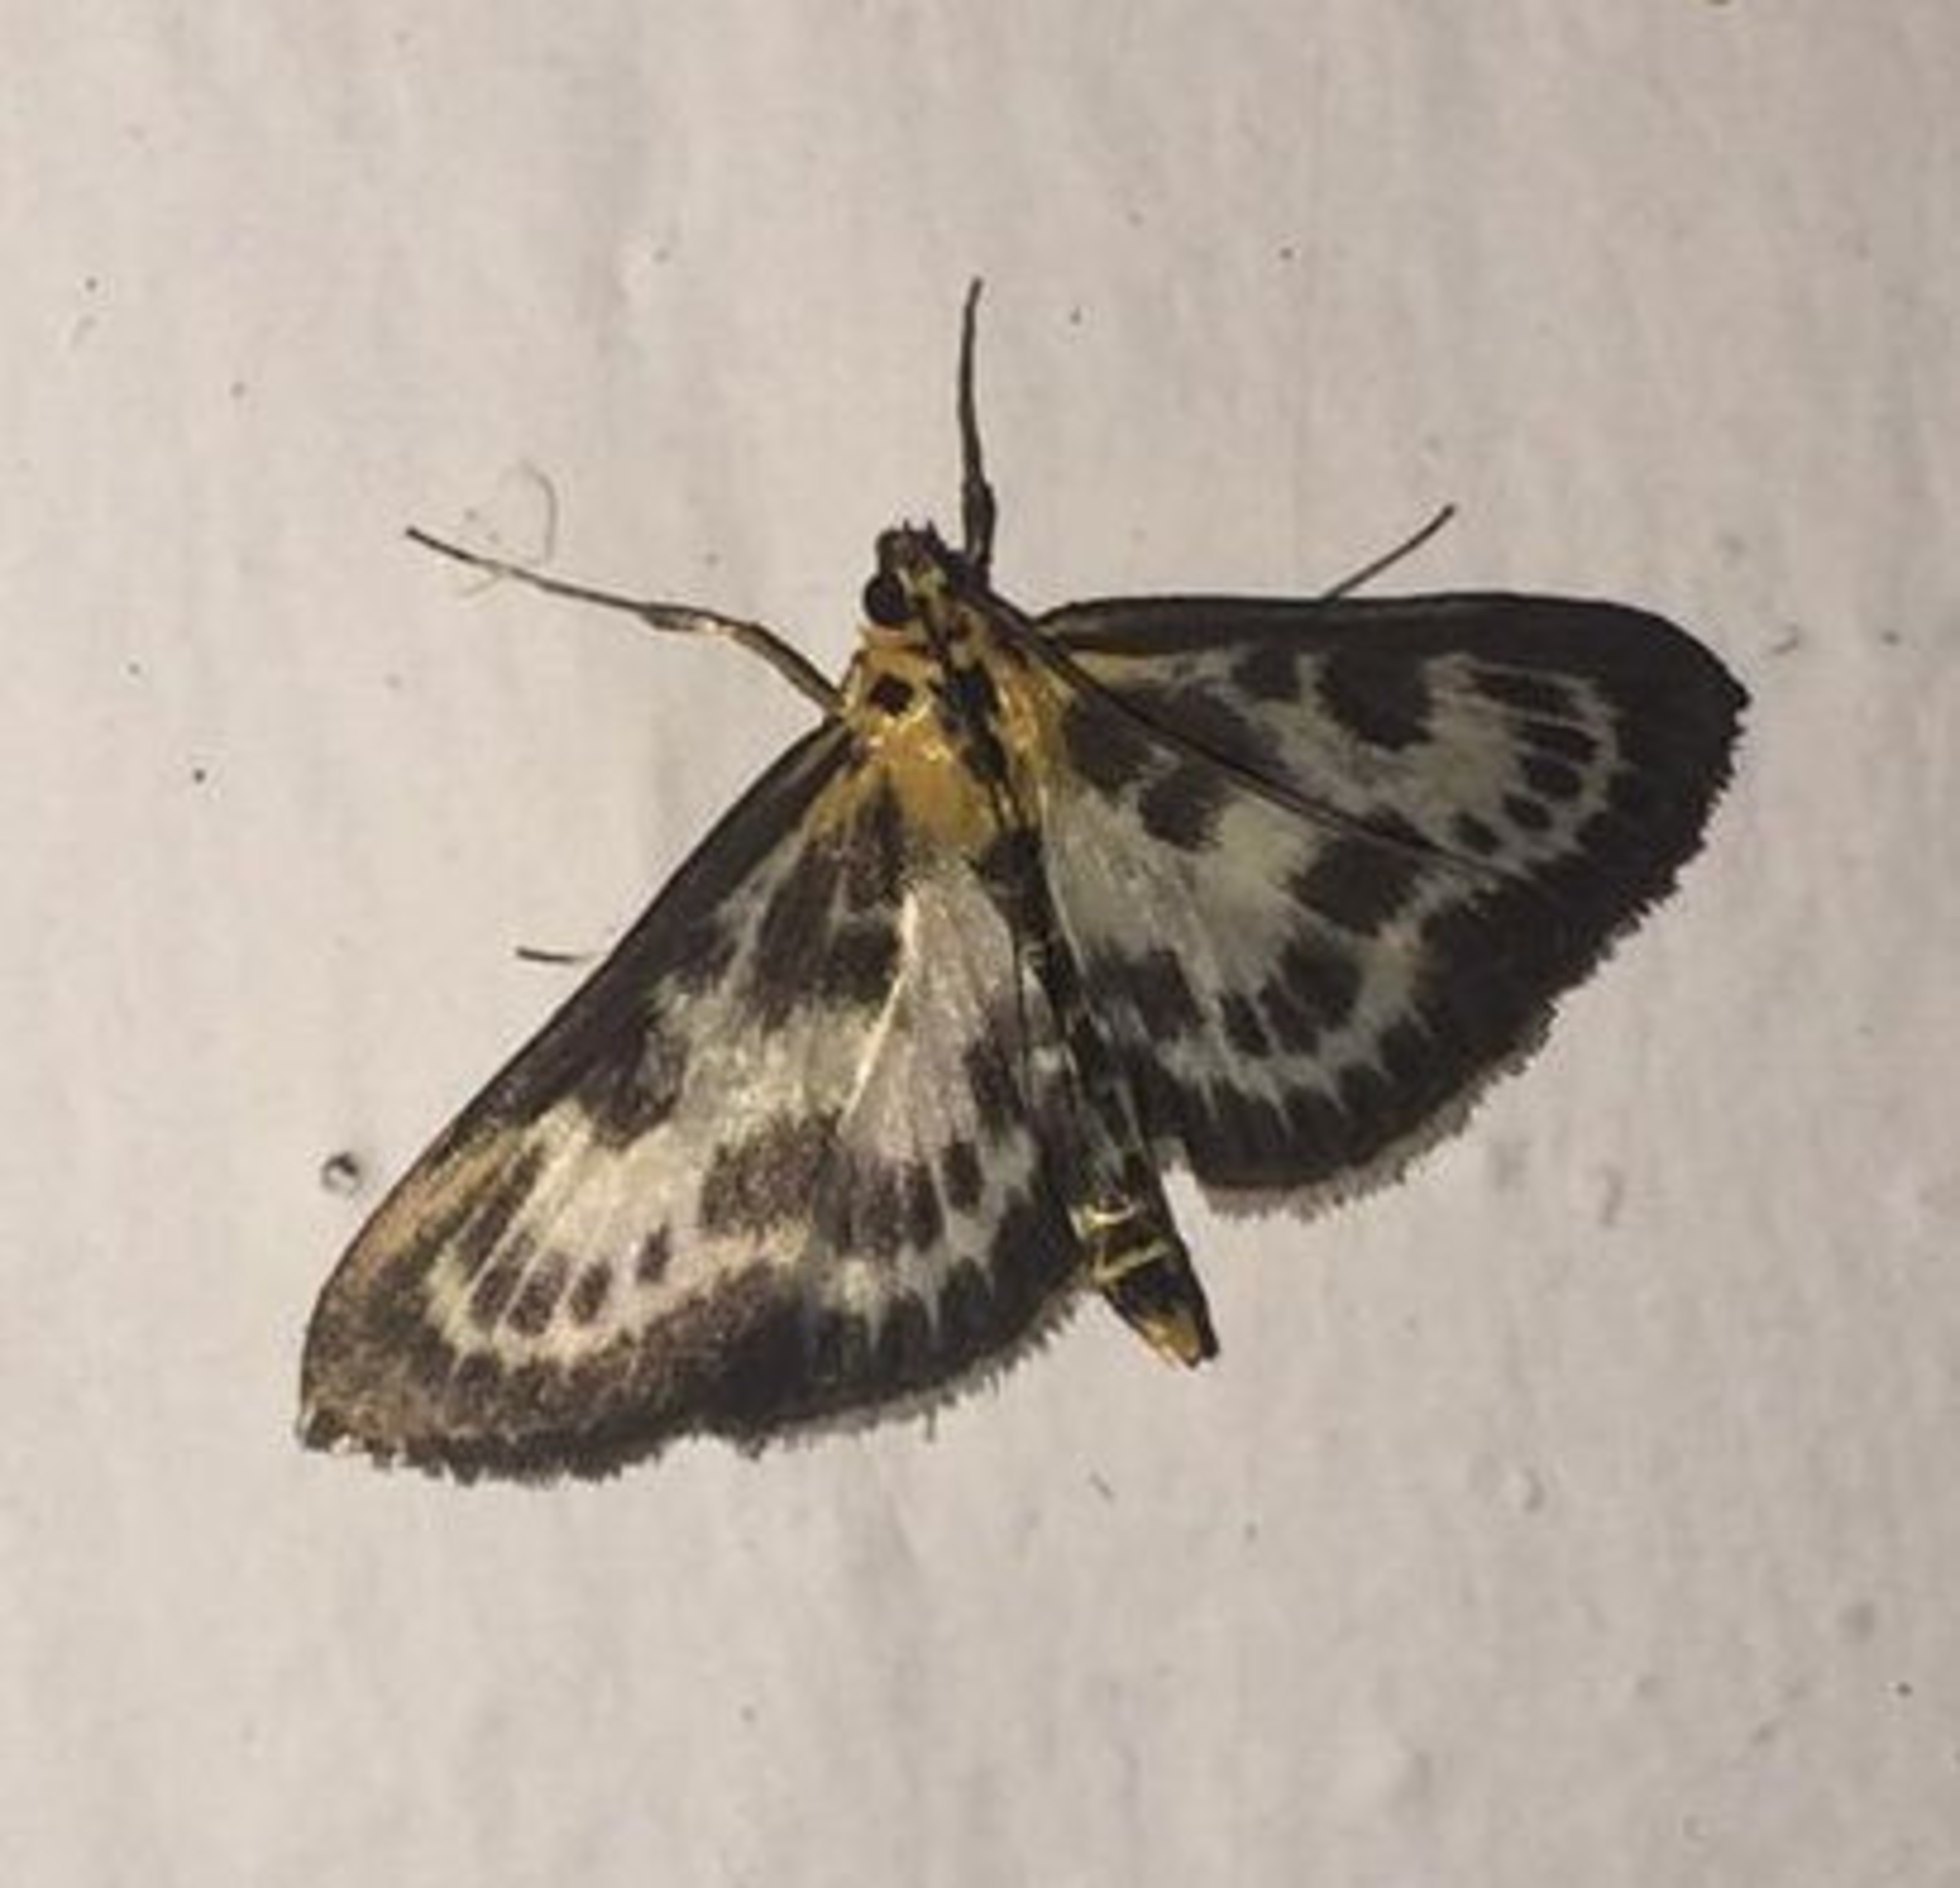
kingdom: Animalia
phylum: Arthropoda
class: Insecta
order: Lepidoptera
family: Crambidae
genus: Anania
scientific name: Anania hortulata
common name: Nældehalvmøl
